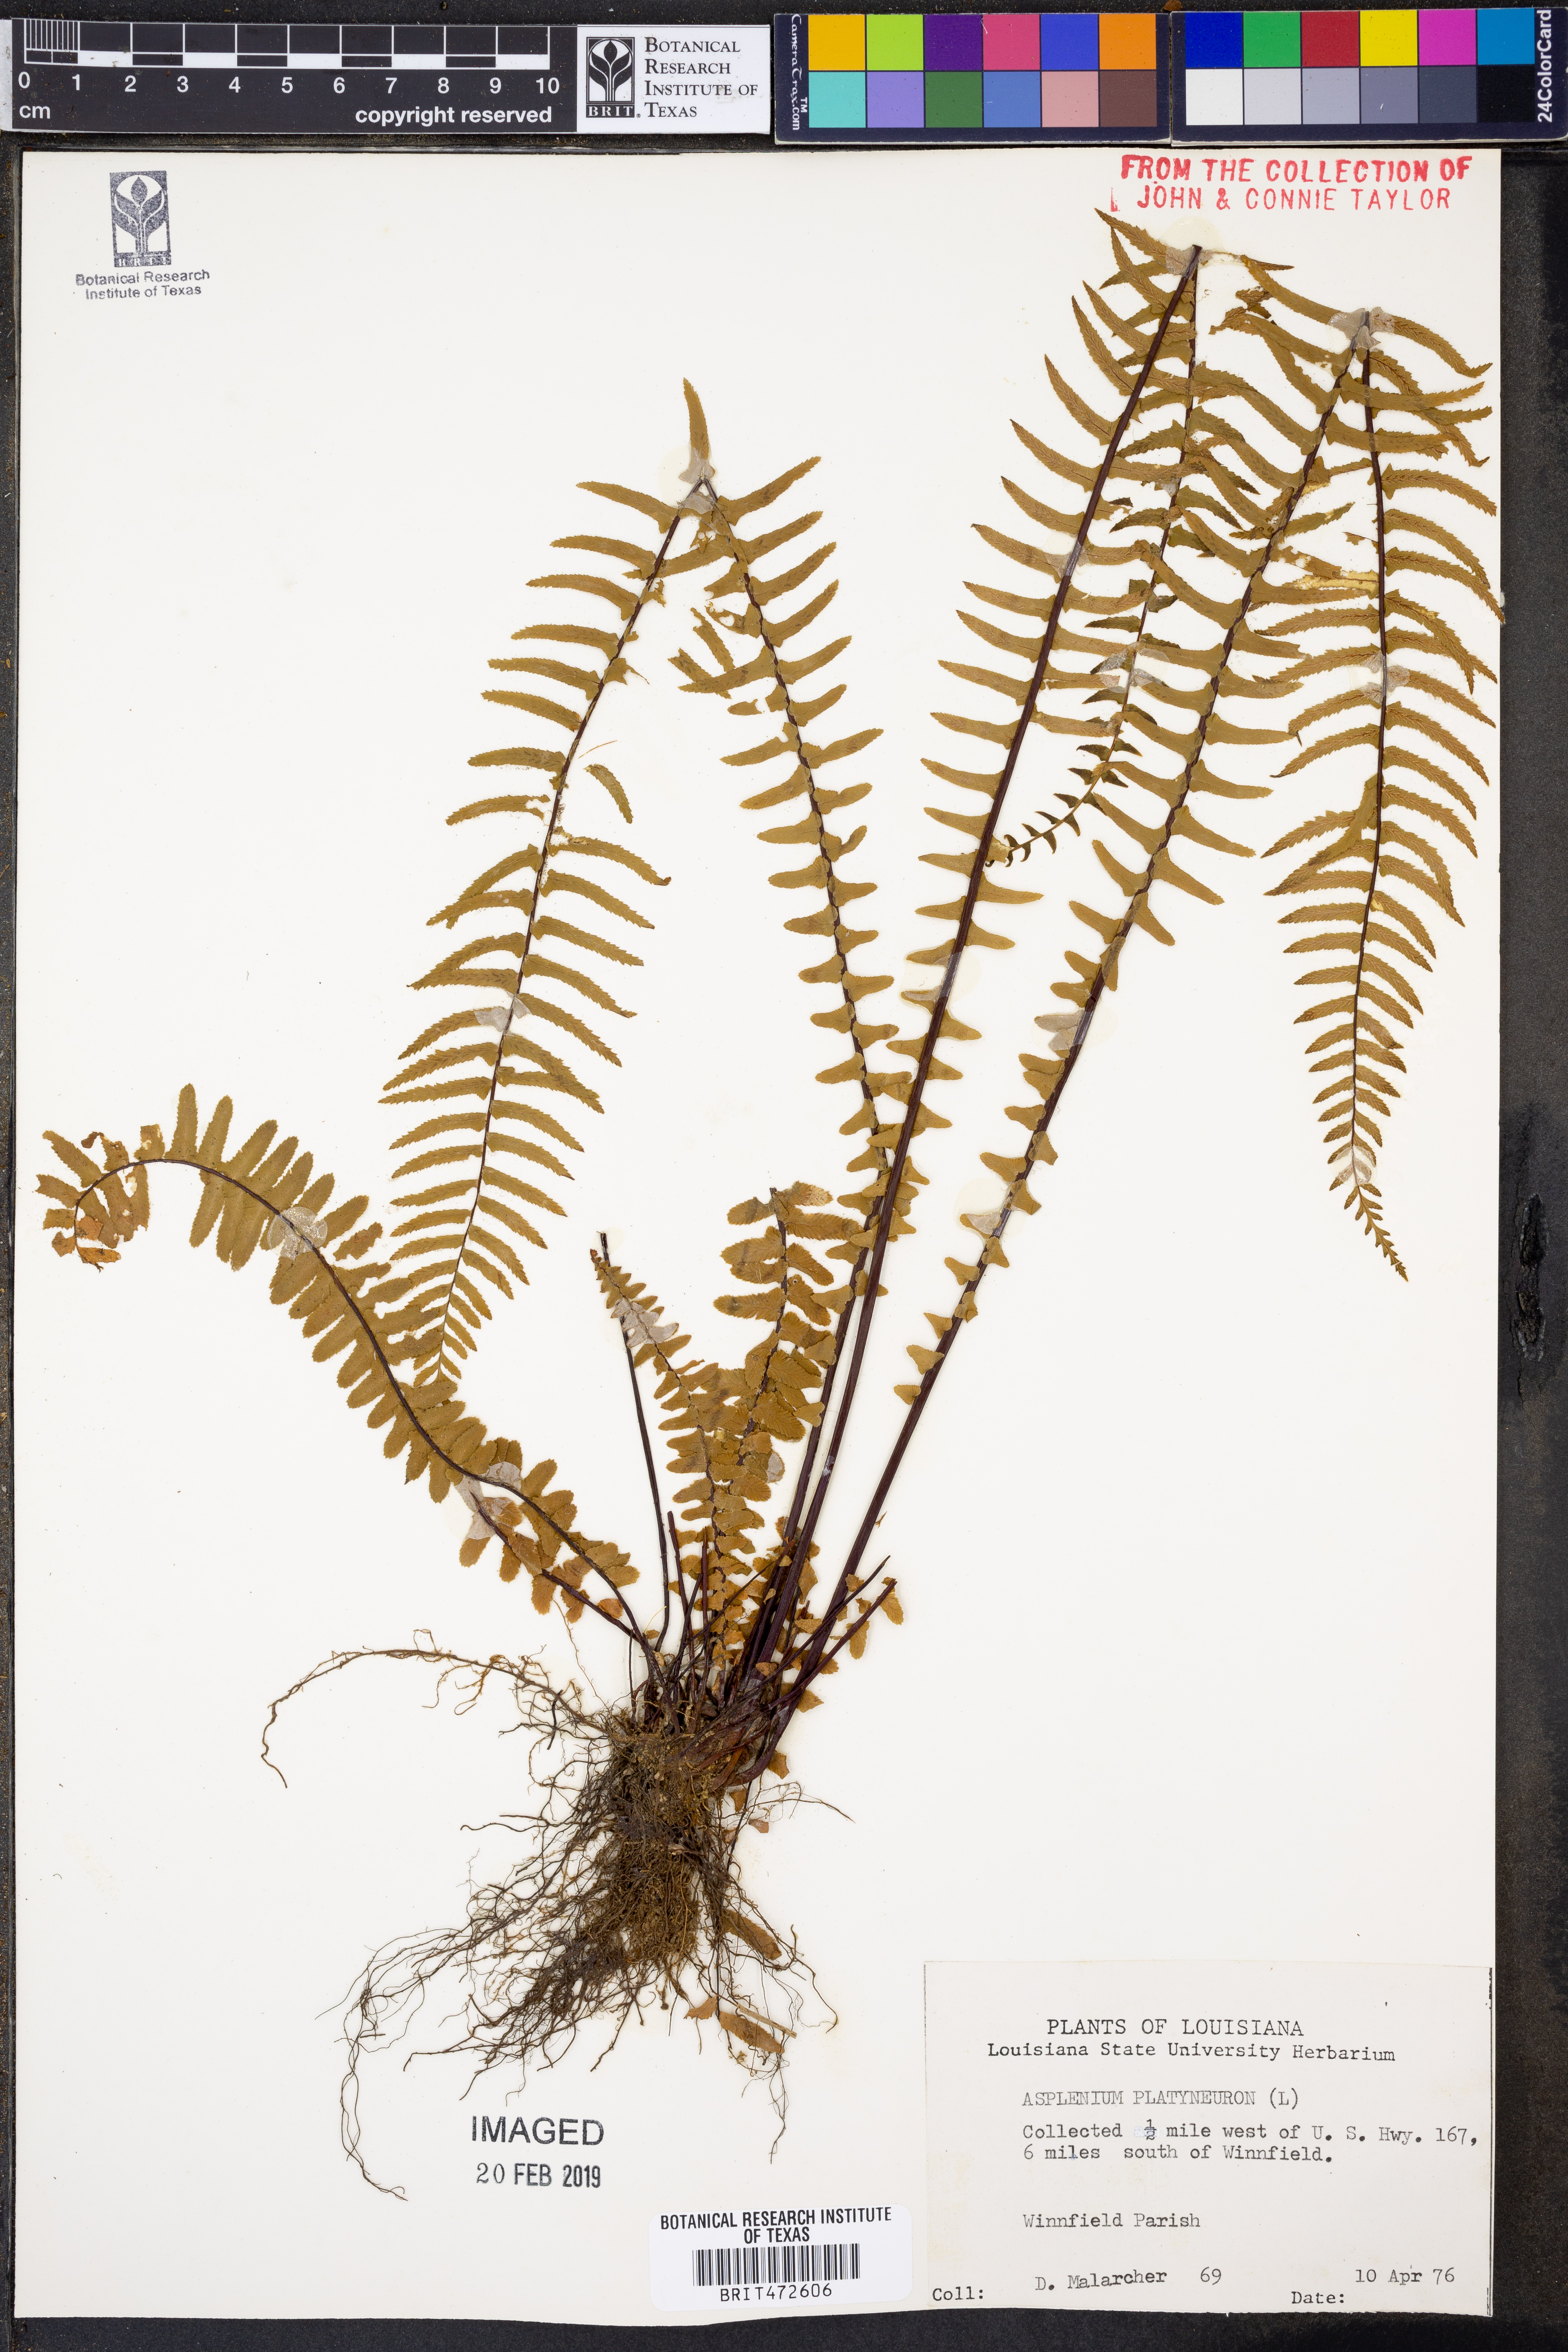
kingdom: Plantae
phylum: Tracheophyta
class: Polypodiopsida
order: Polypodiales
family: Aspleniaceae
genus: Asplenium
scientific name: Asplenium platyneuron
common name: Ebony spleenwort
